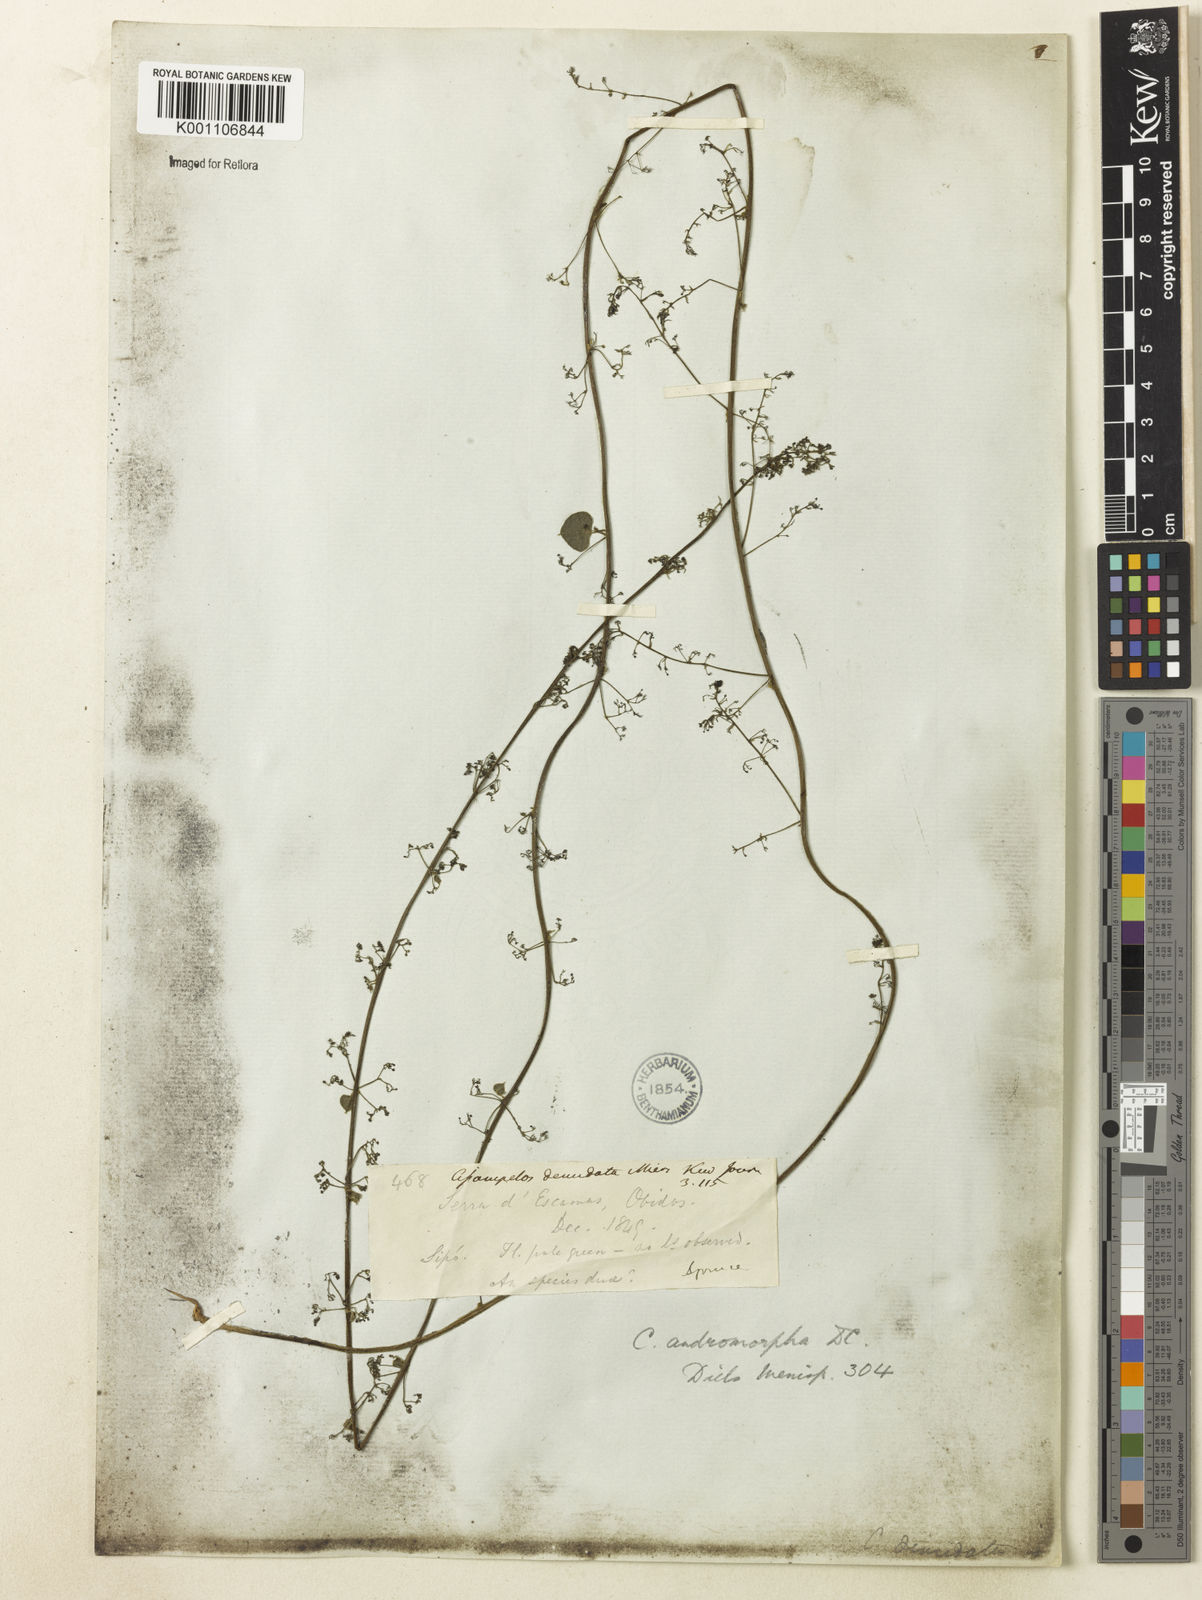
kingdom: Plantae
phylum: Tracheophyta
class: Magnoliopsida
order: Ranunculales
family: Menispermaceae
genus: Cissampelos
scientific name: Cissampelos andromorpha
